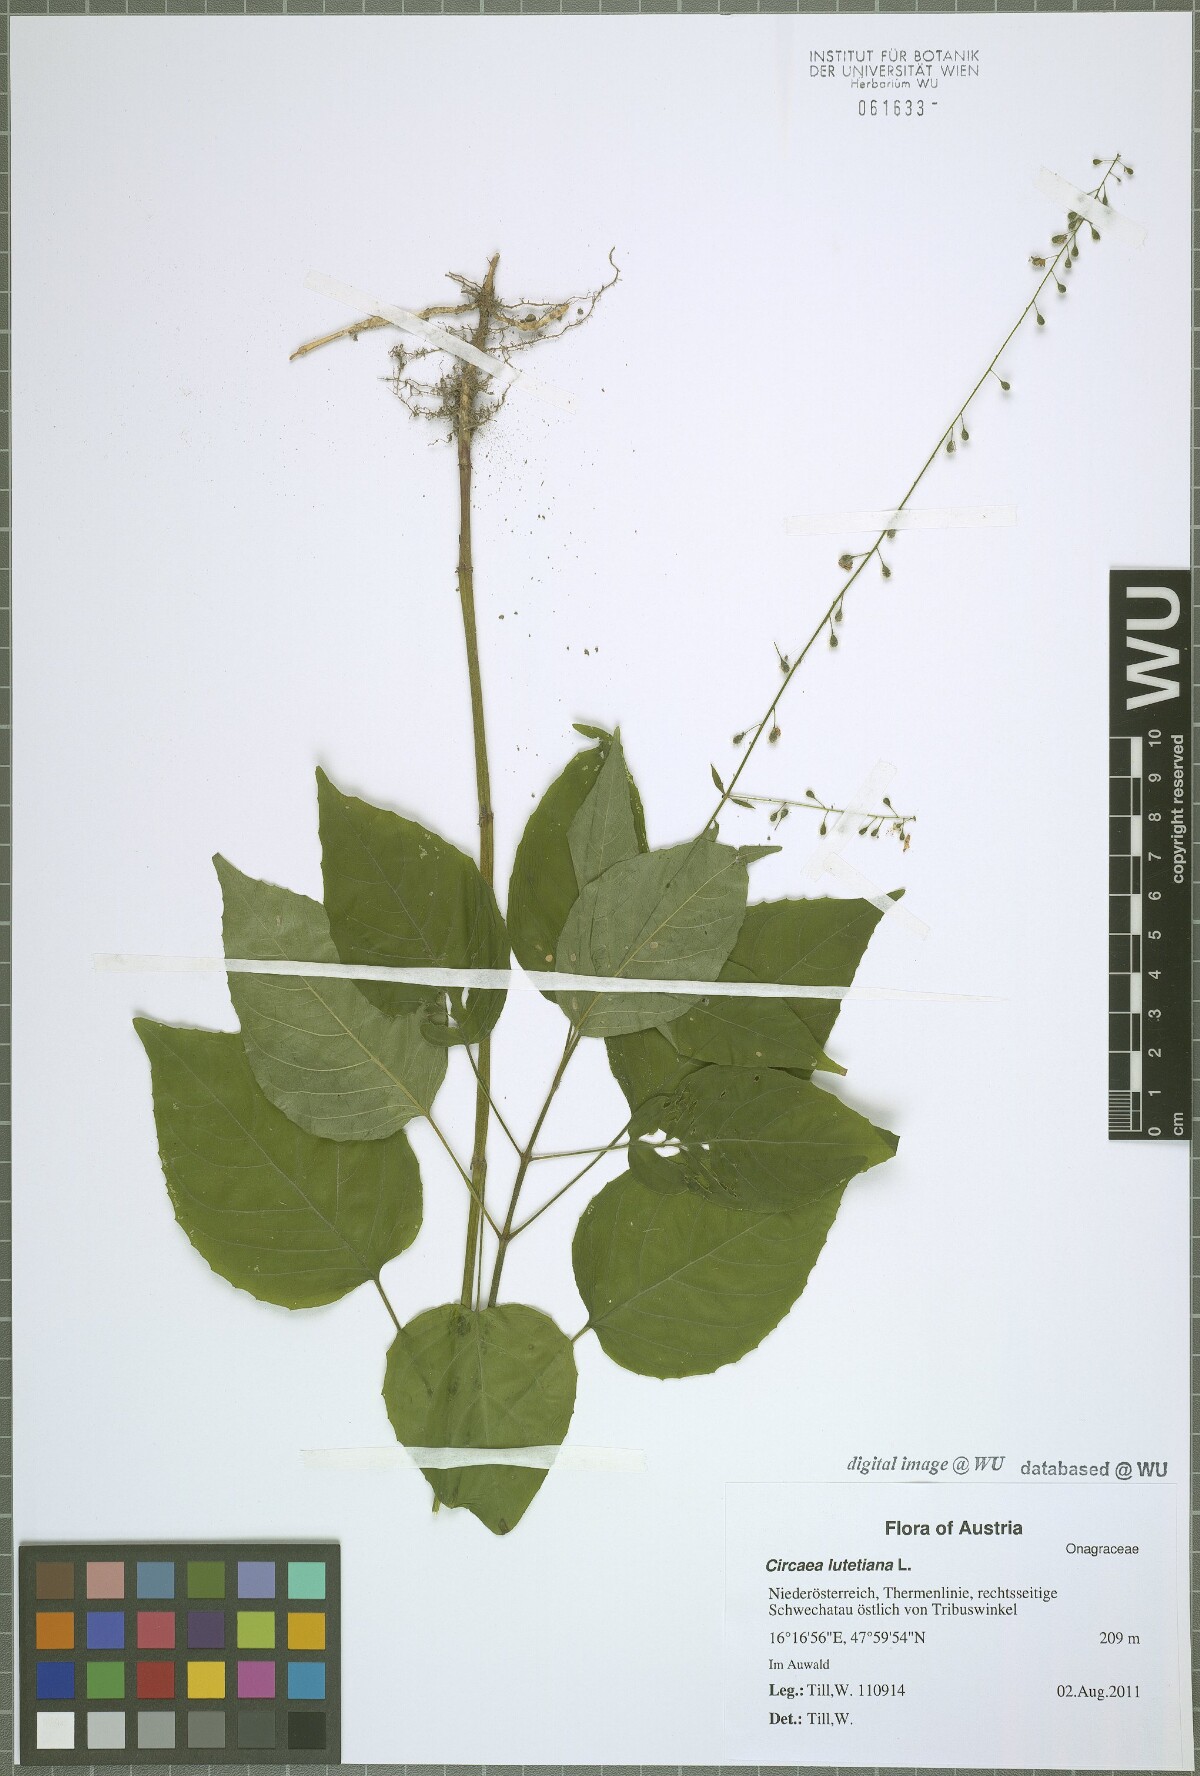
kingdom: Plantae
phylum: Tracheophyta
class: Magnoliopsida
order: Myrtales
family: Onagraceae
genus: Circaea
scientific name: Circaea lutetiana
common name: Enchanter's-nightshade
